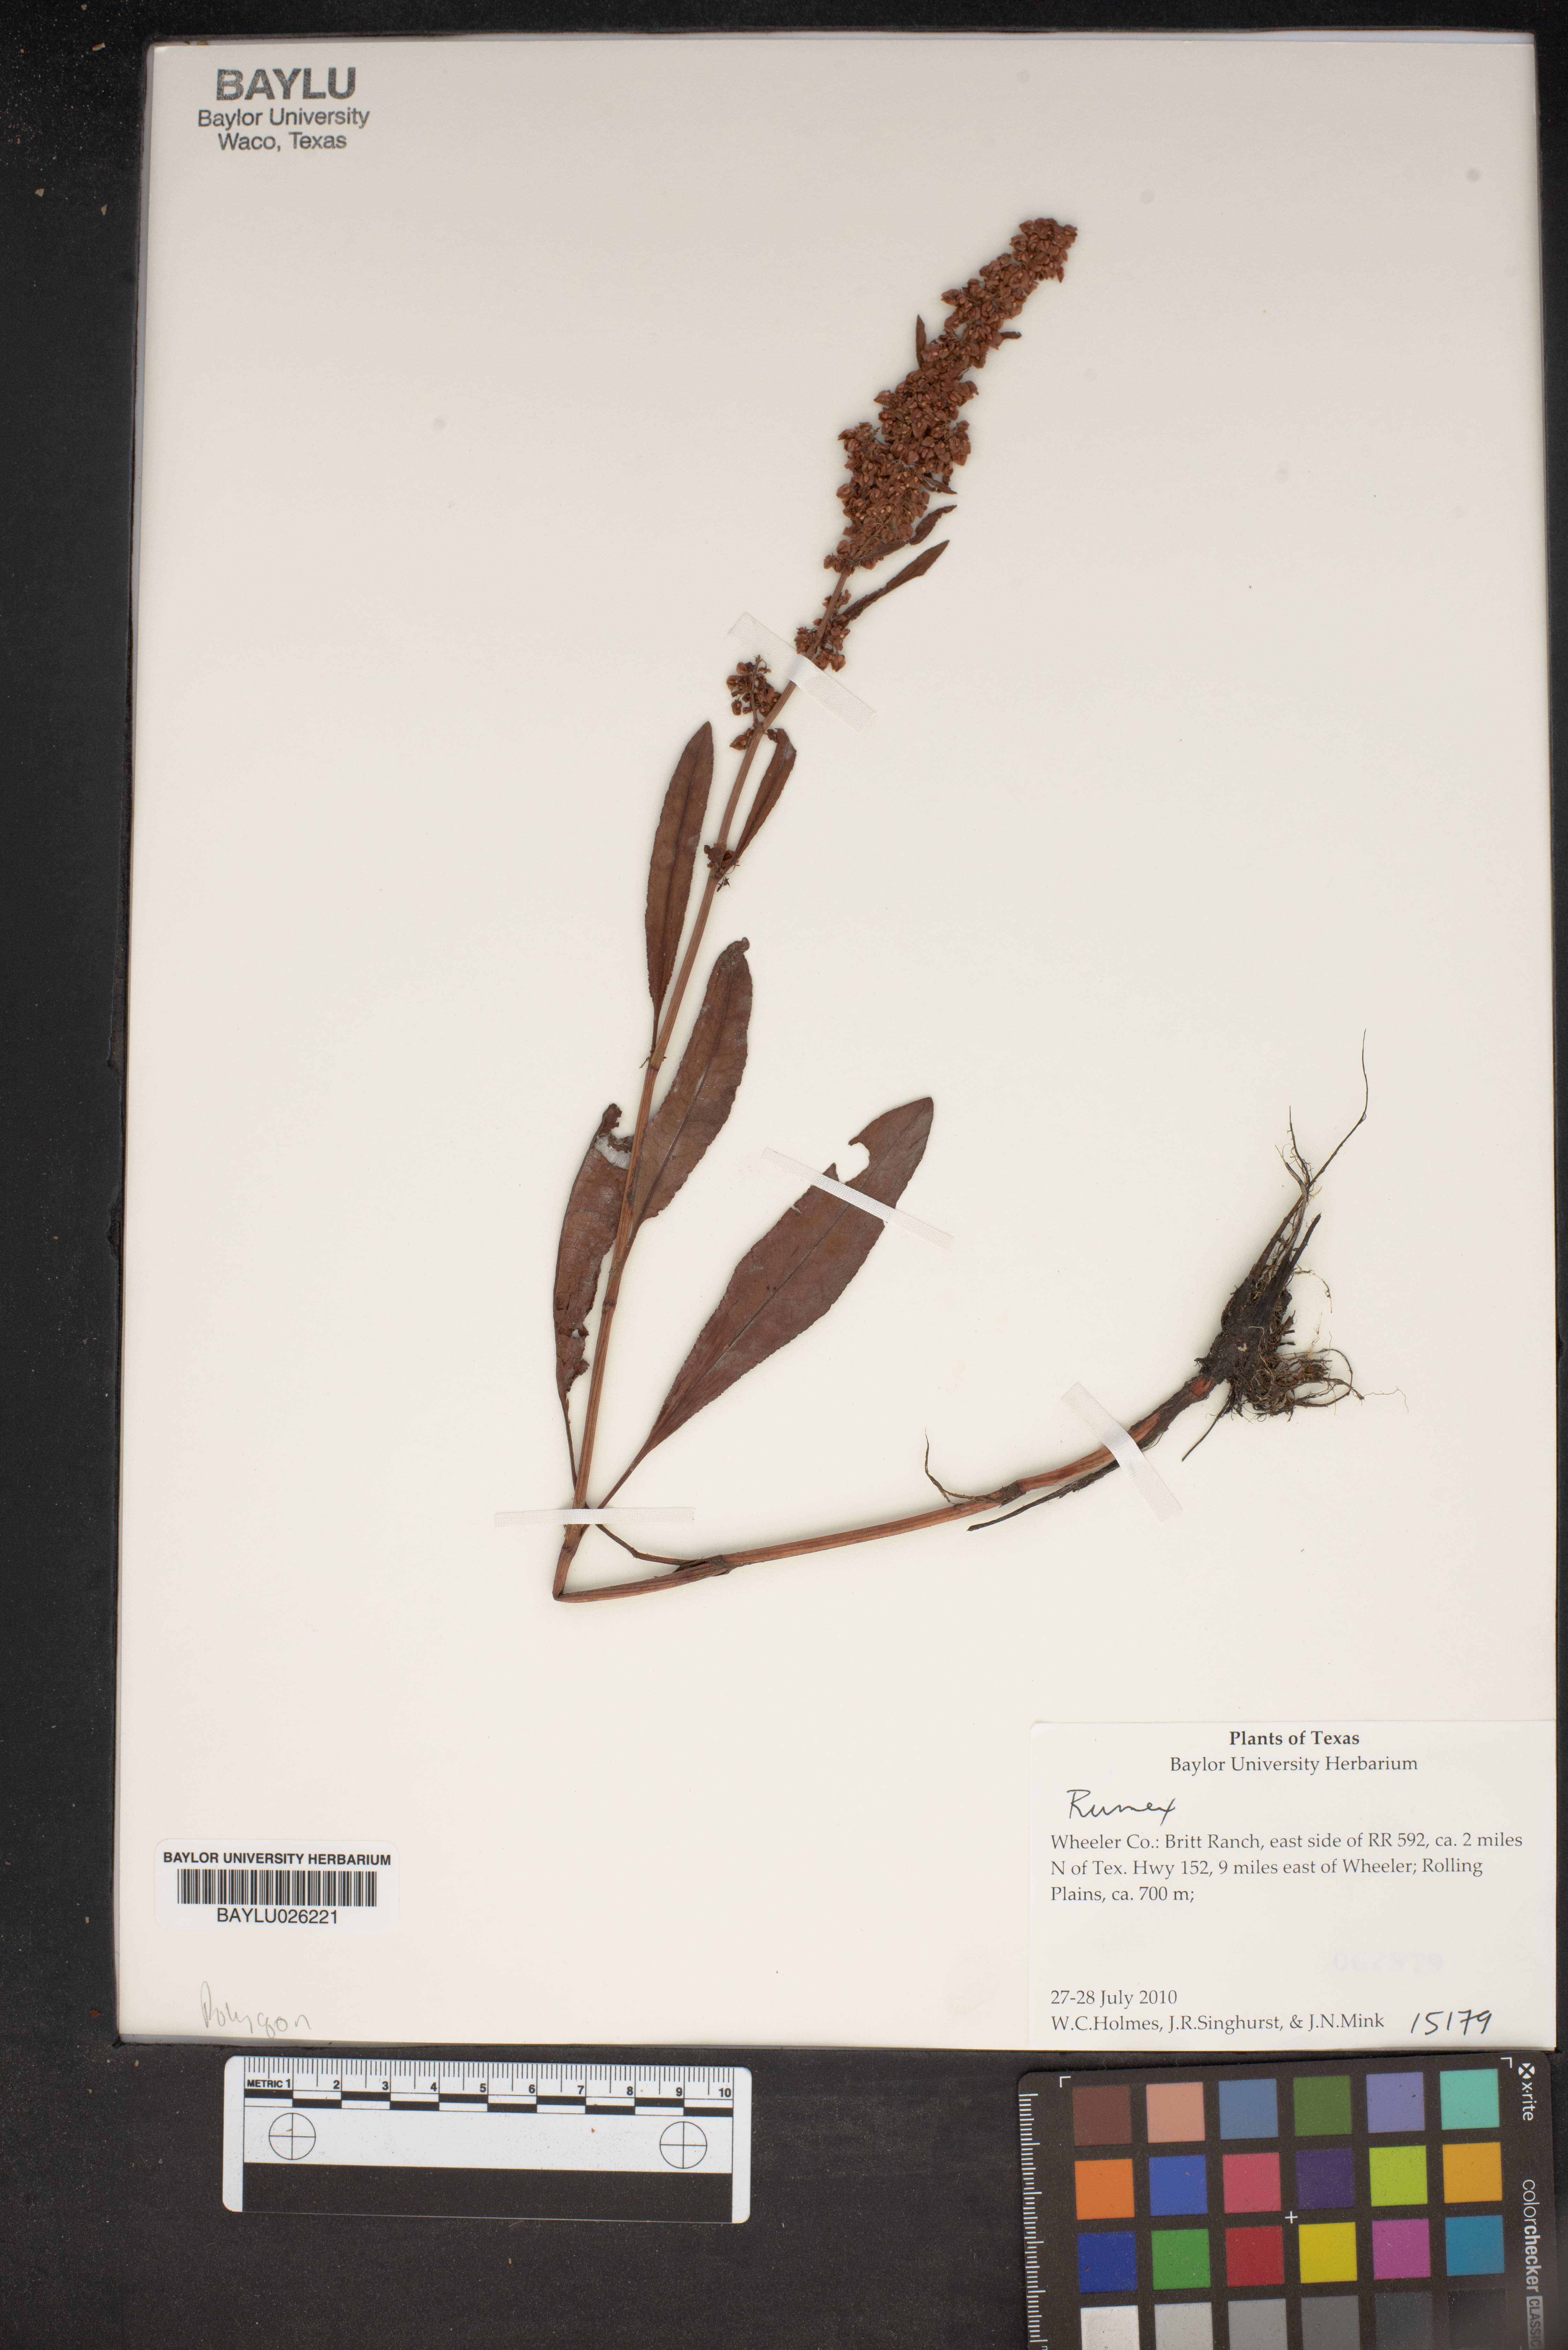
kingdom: Plantae
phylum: Tracheophyta
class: Magnoliopsida
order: Caryophyllales
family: Polygonaceae
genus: Rumex
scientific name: Rumex
